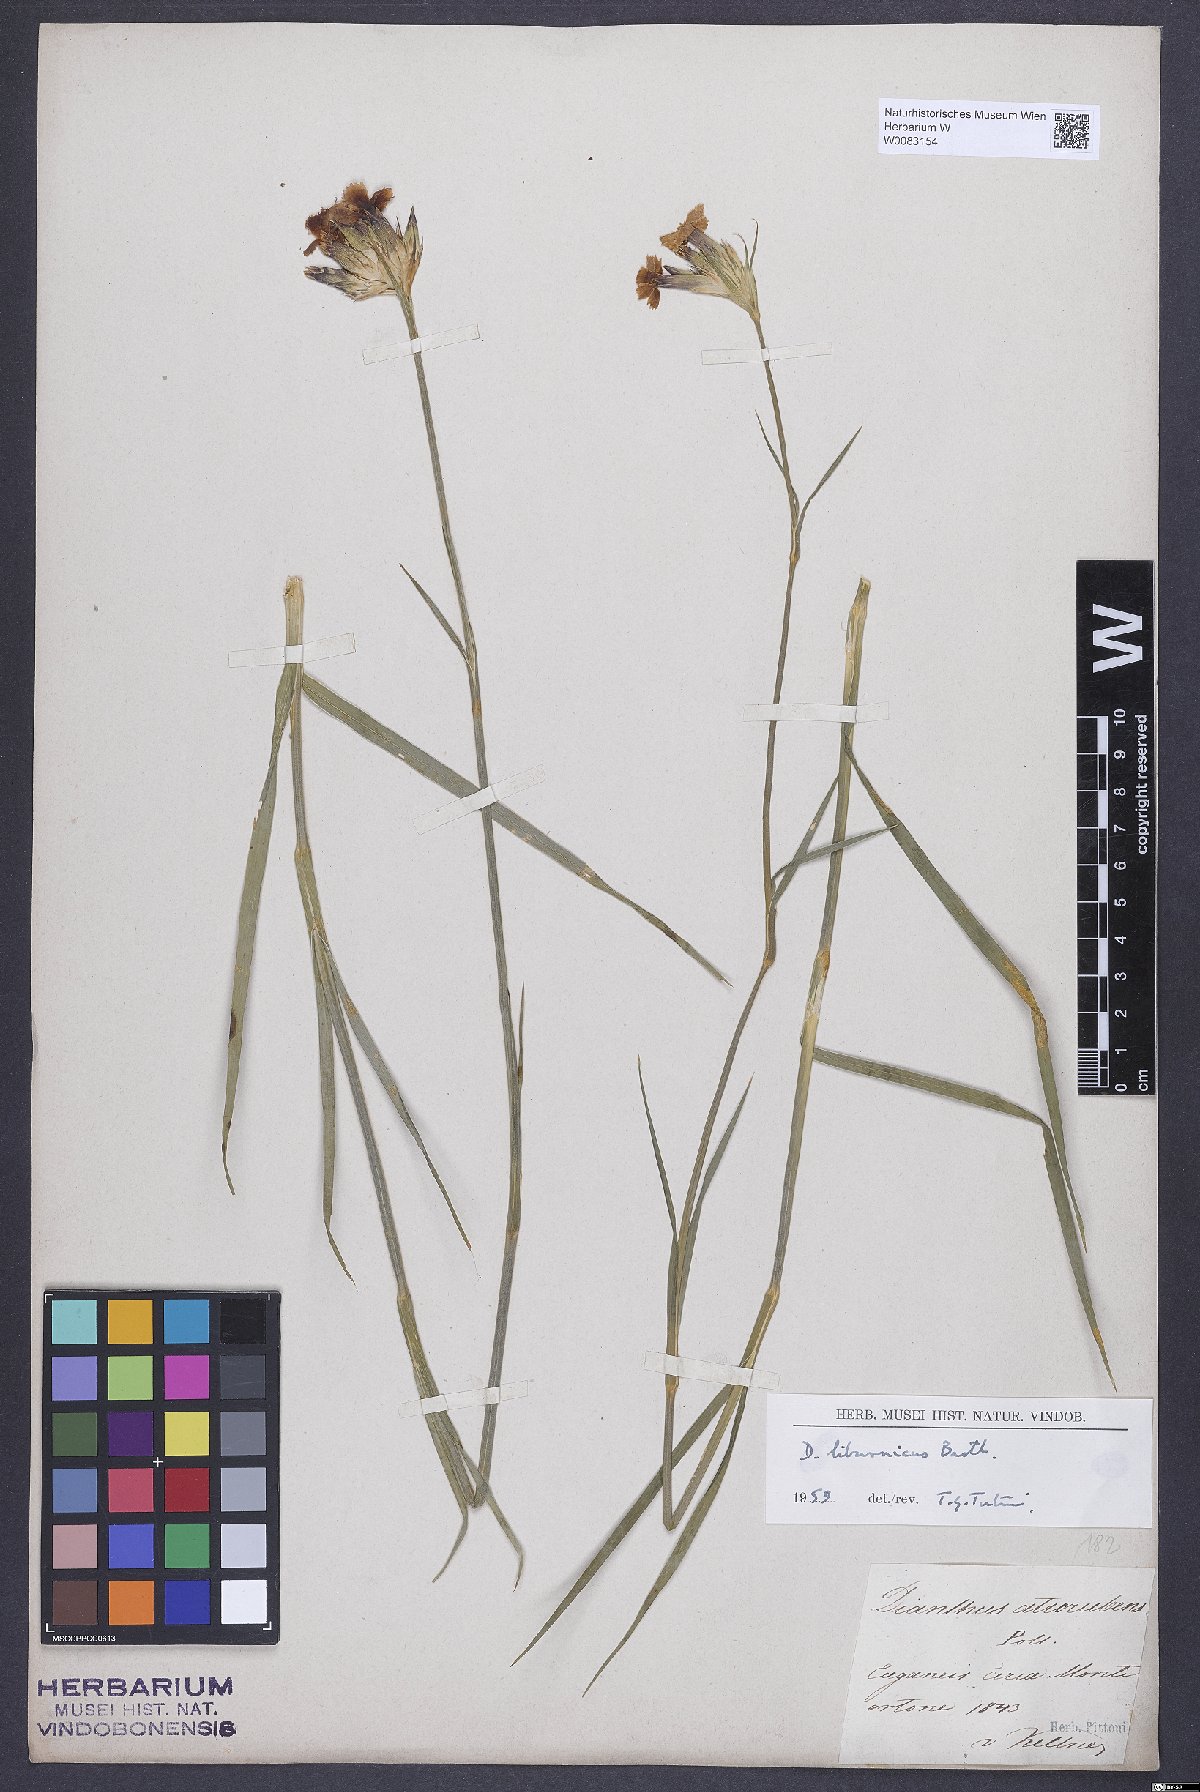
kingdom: Plantae
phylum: Tracheophyta
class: Magnoliopsida
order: Caryophyllales
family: Caryophyllaceae
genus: Dianthus
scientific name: Dianthus balbisii
